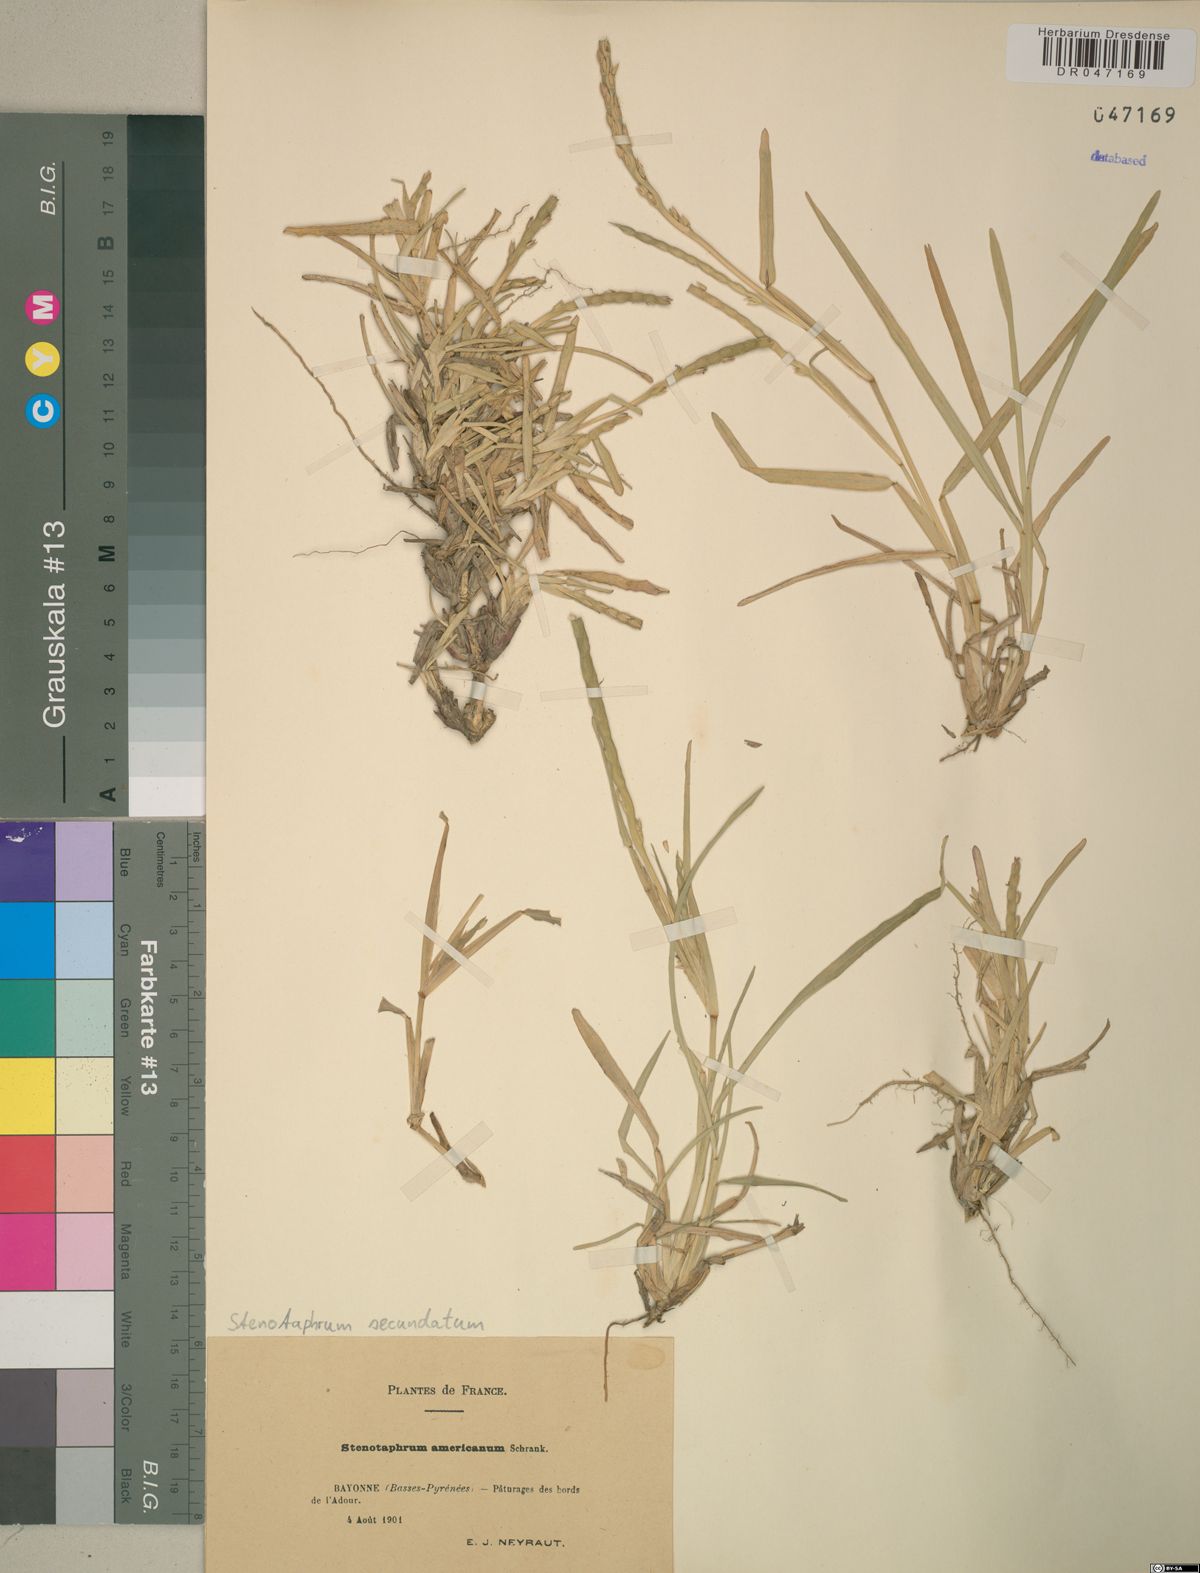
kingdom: Plantae
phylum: Tracheophyta
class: Liliopsida
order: Poales
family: Poaceae
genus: Stenotaphrum
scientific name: Stenotaphrum secundatum
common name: St. augustine grass
